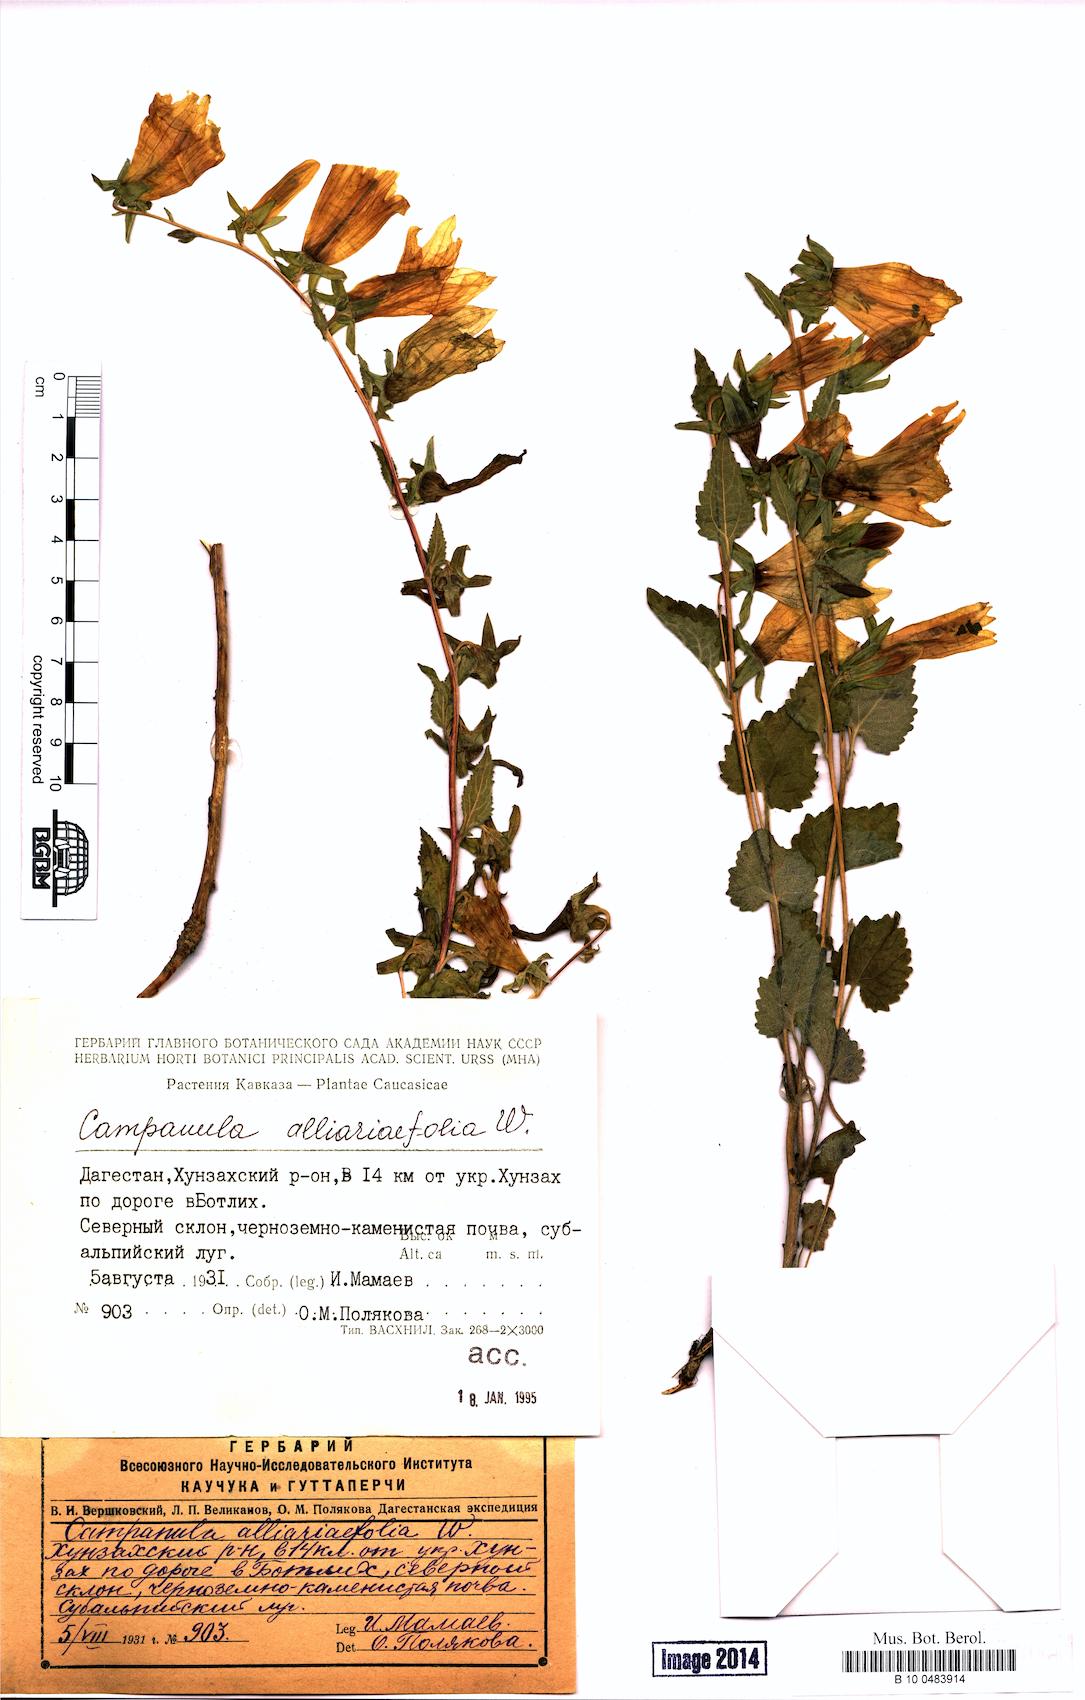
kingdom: Plantae
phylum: Tracheophyta
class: Magnoliopsida
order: Asterales
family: Campanulaceae
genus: Campanula
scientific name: Campanula alliariifolia
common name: Cornish bellflower
